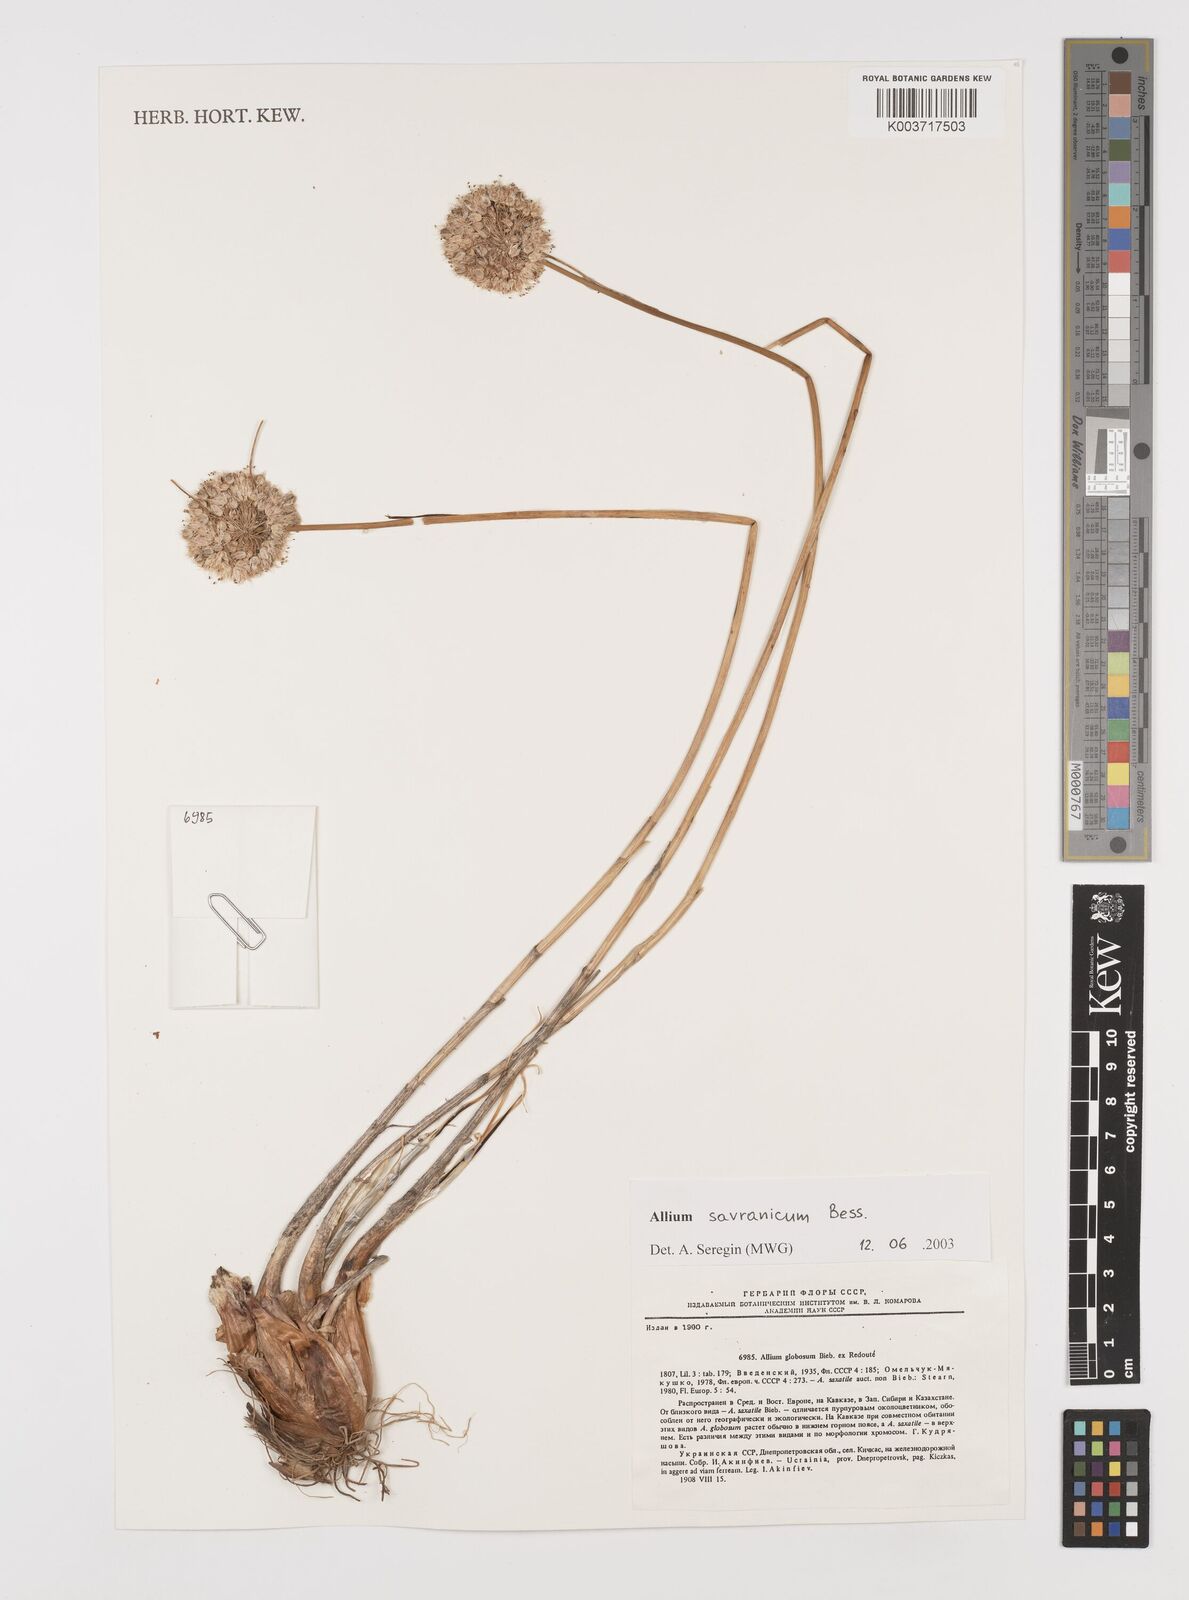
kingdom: Plantae
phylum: Tracheophyta
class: Liliopsida
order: Asparagales
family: Amaryllidaceae
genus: Allium
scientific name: Allium saxatile
